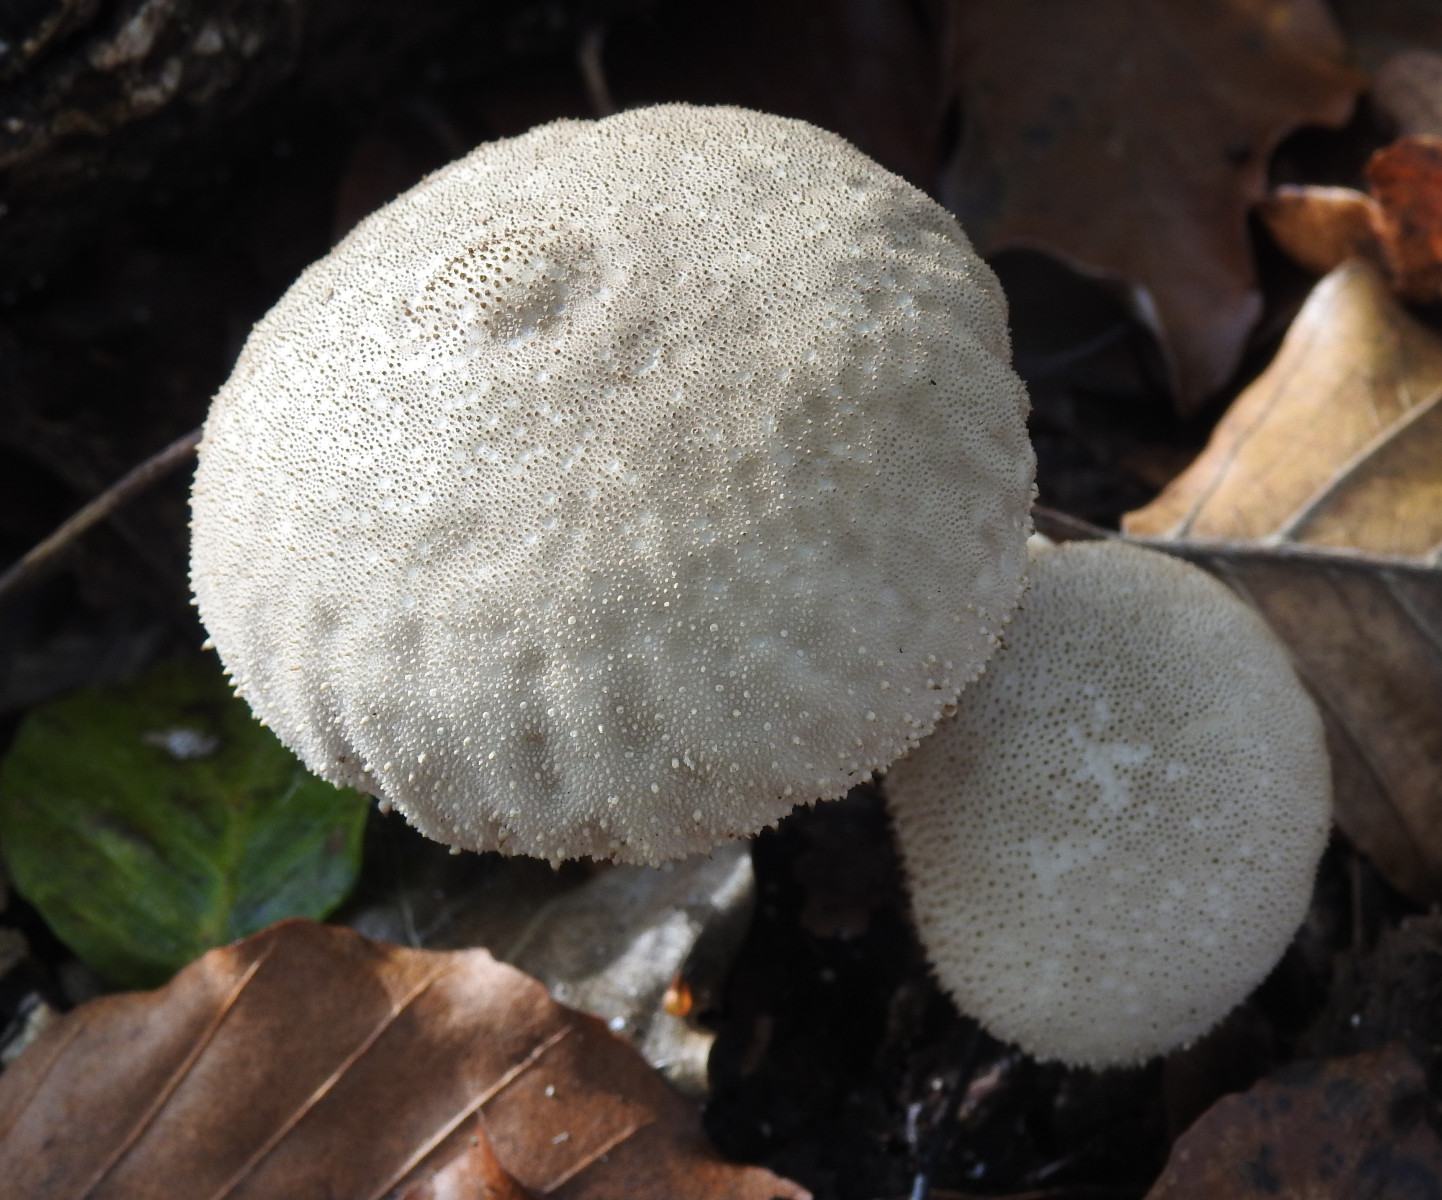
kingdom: Fungi
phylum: Basidiomycota
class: Agaricomycetes
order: Agaricales
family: Lycoperdaceae
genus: Lycoperdon
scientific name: Lycoperdon perlatum
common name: krystal-støvbold
